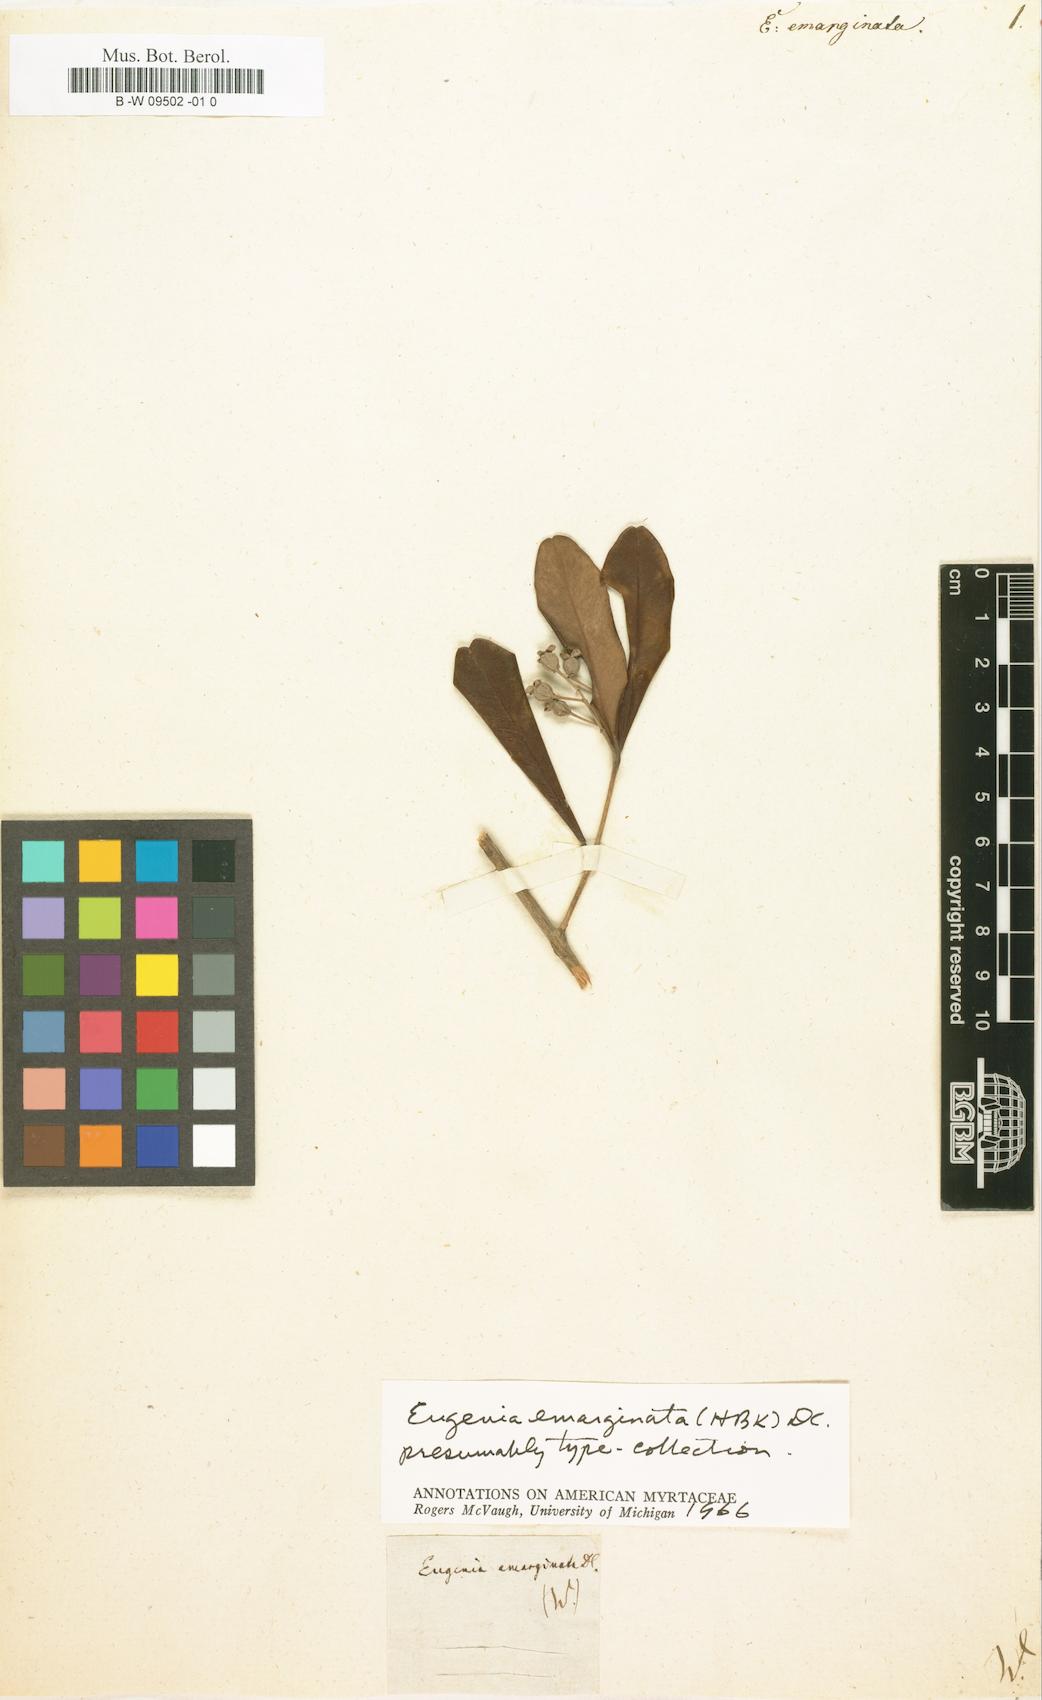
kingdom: Plantae
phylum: Tracheophyta
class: Magnoliopsida
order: Myrtales
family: Myrtaceae
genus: Eugenia
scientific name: Eugenia emarginata
